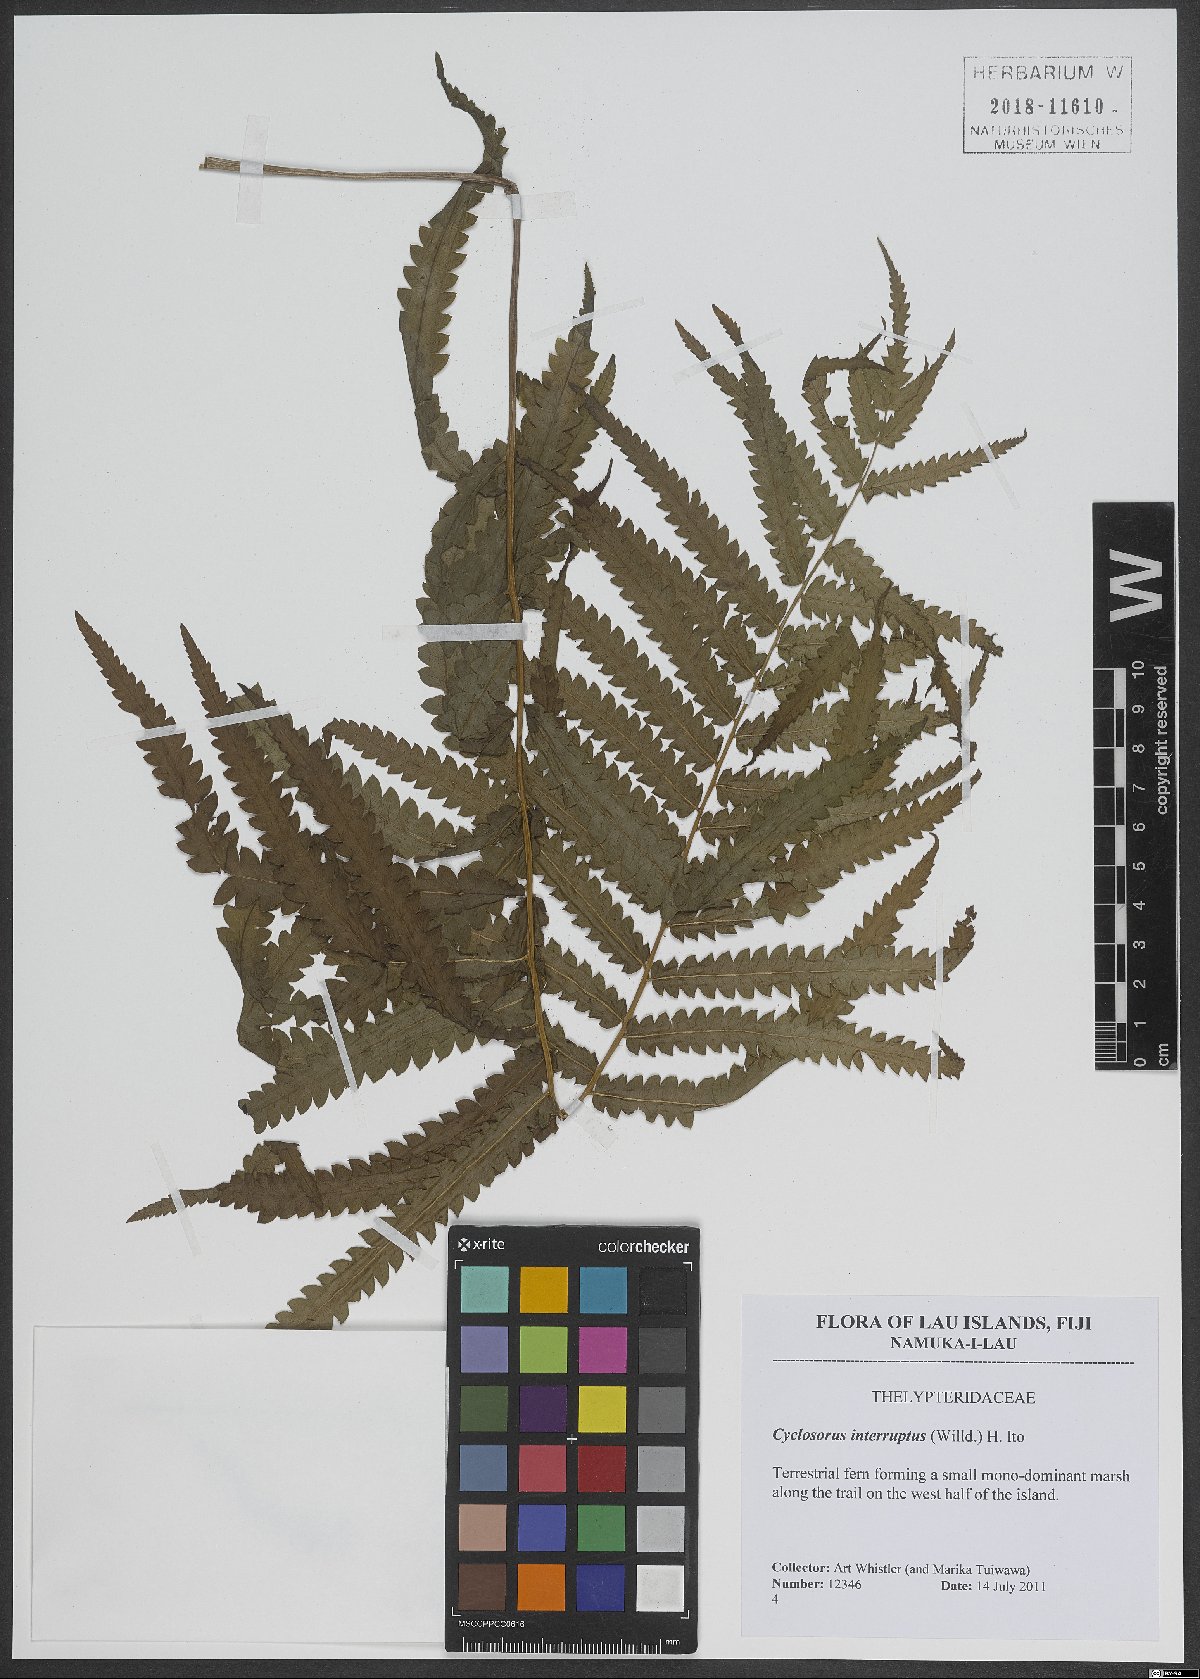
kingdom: Plantae
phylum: Tracheophyta
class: Polypodiopsida
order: Polypodiales
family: Thelypteridaceae
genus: Cyclosorus
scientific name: Cyclosorus interruptus
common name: Neke fern
